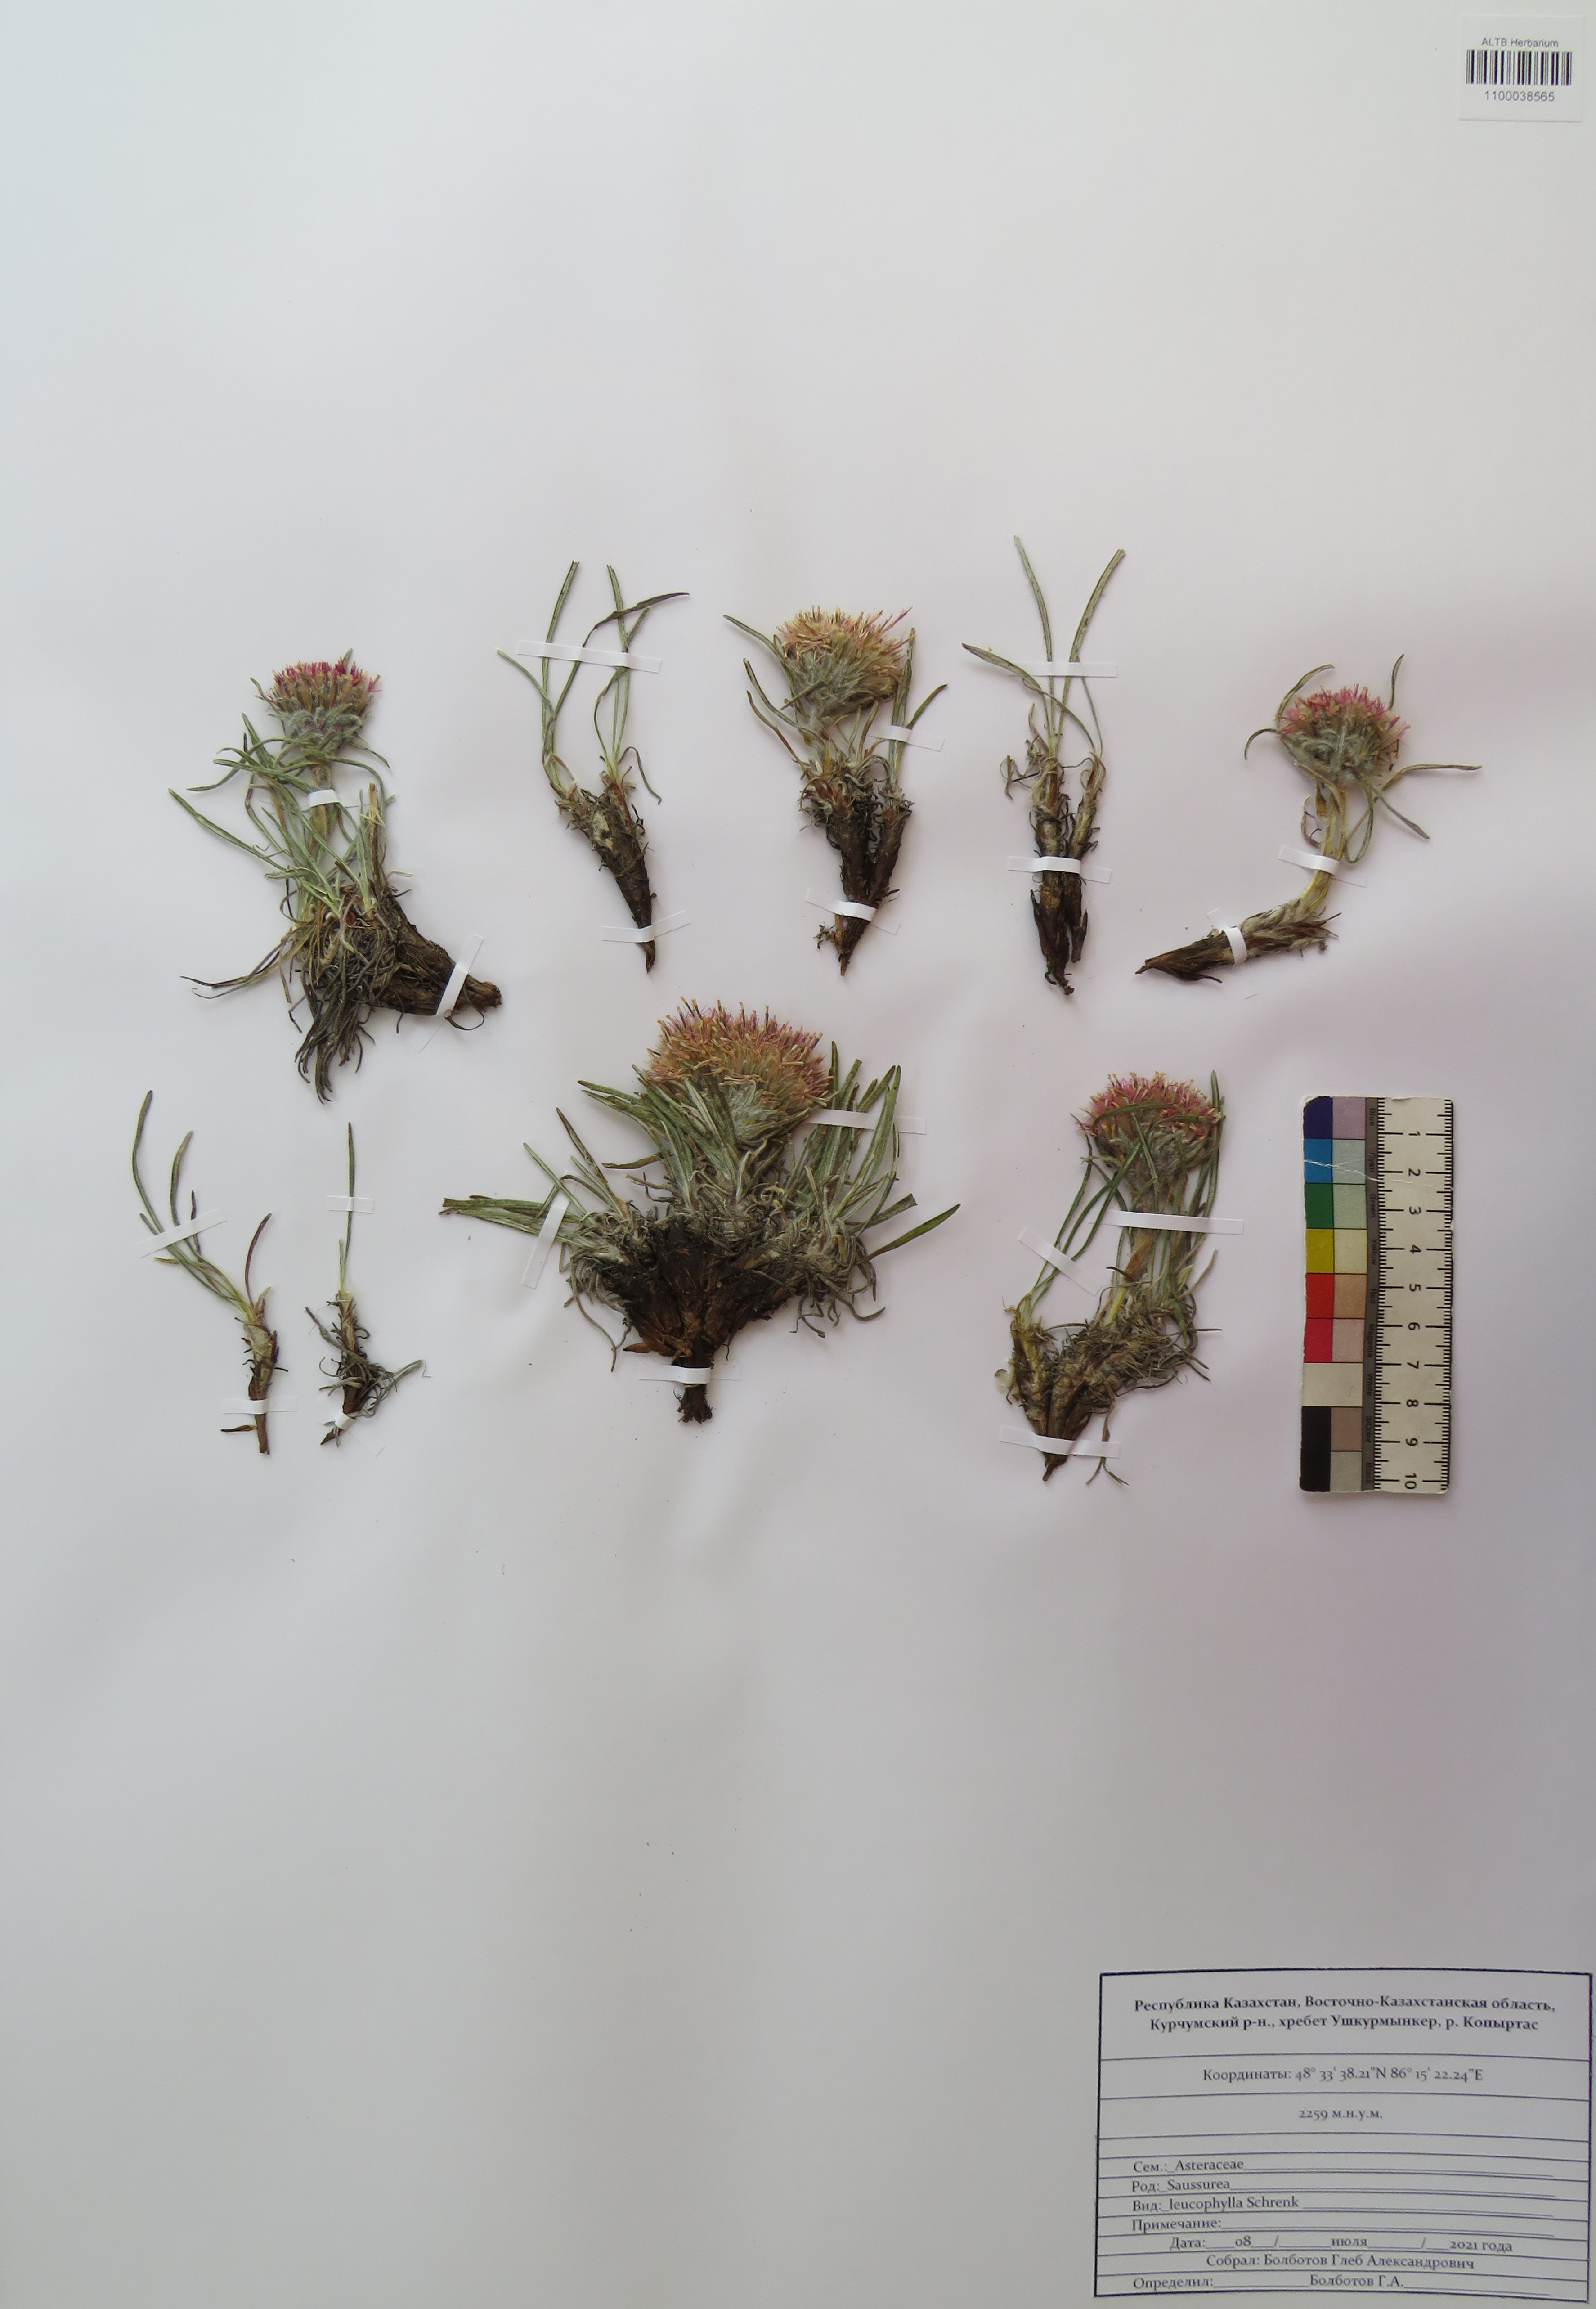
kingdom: Plantae
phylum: Tracheophyta
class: Magnoliopsida
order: Asterales
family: Asteraceae
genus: Saussurea
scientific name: Saussurea leucophylla
